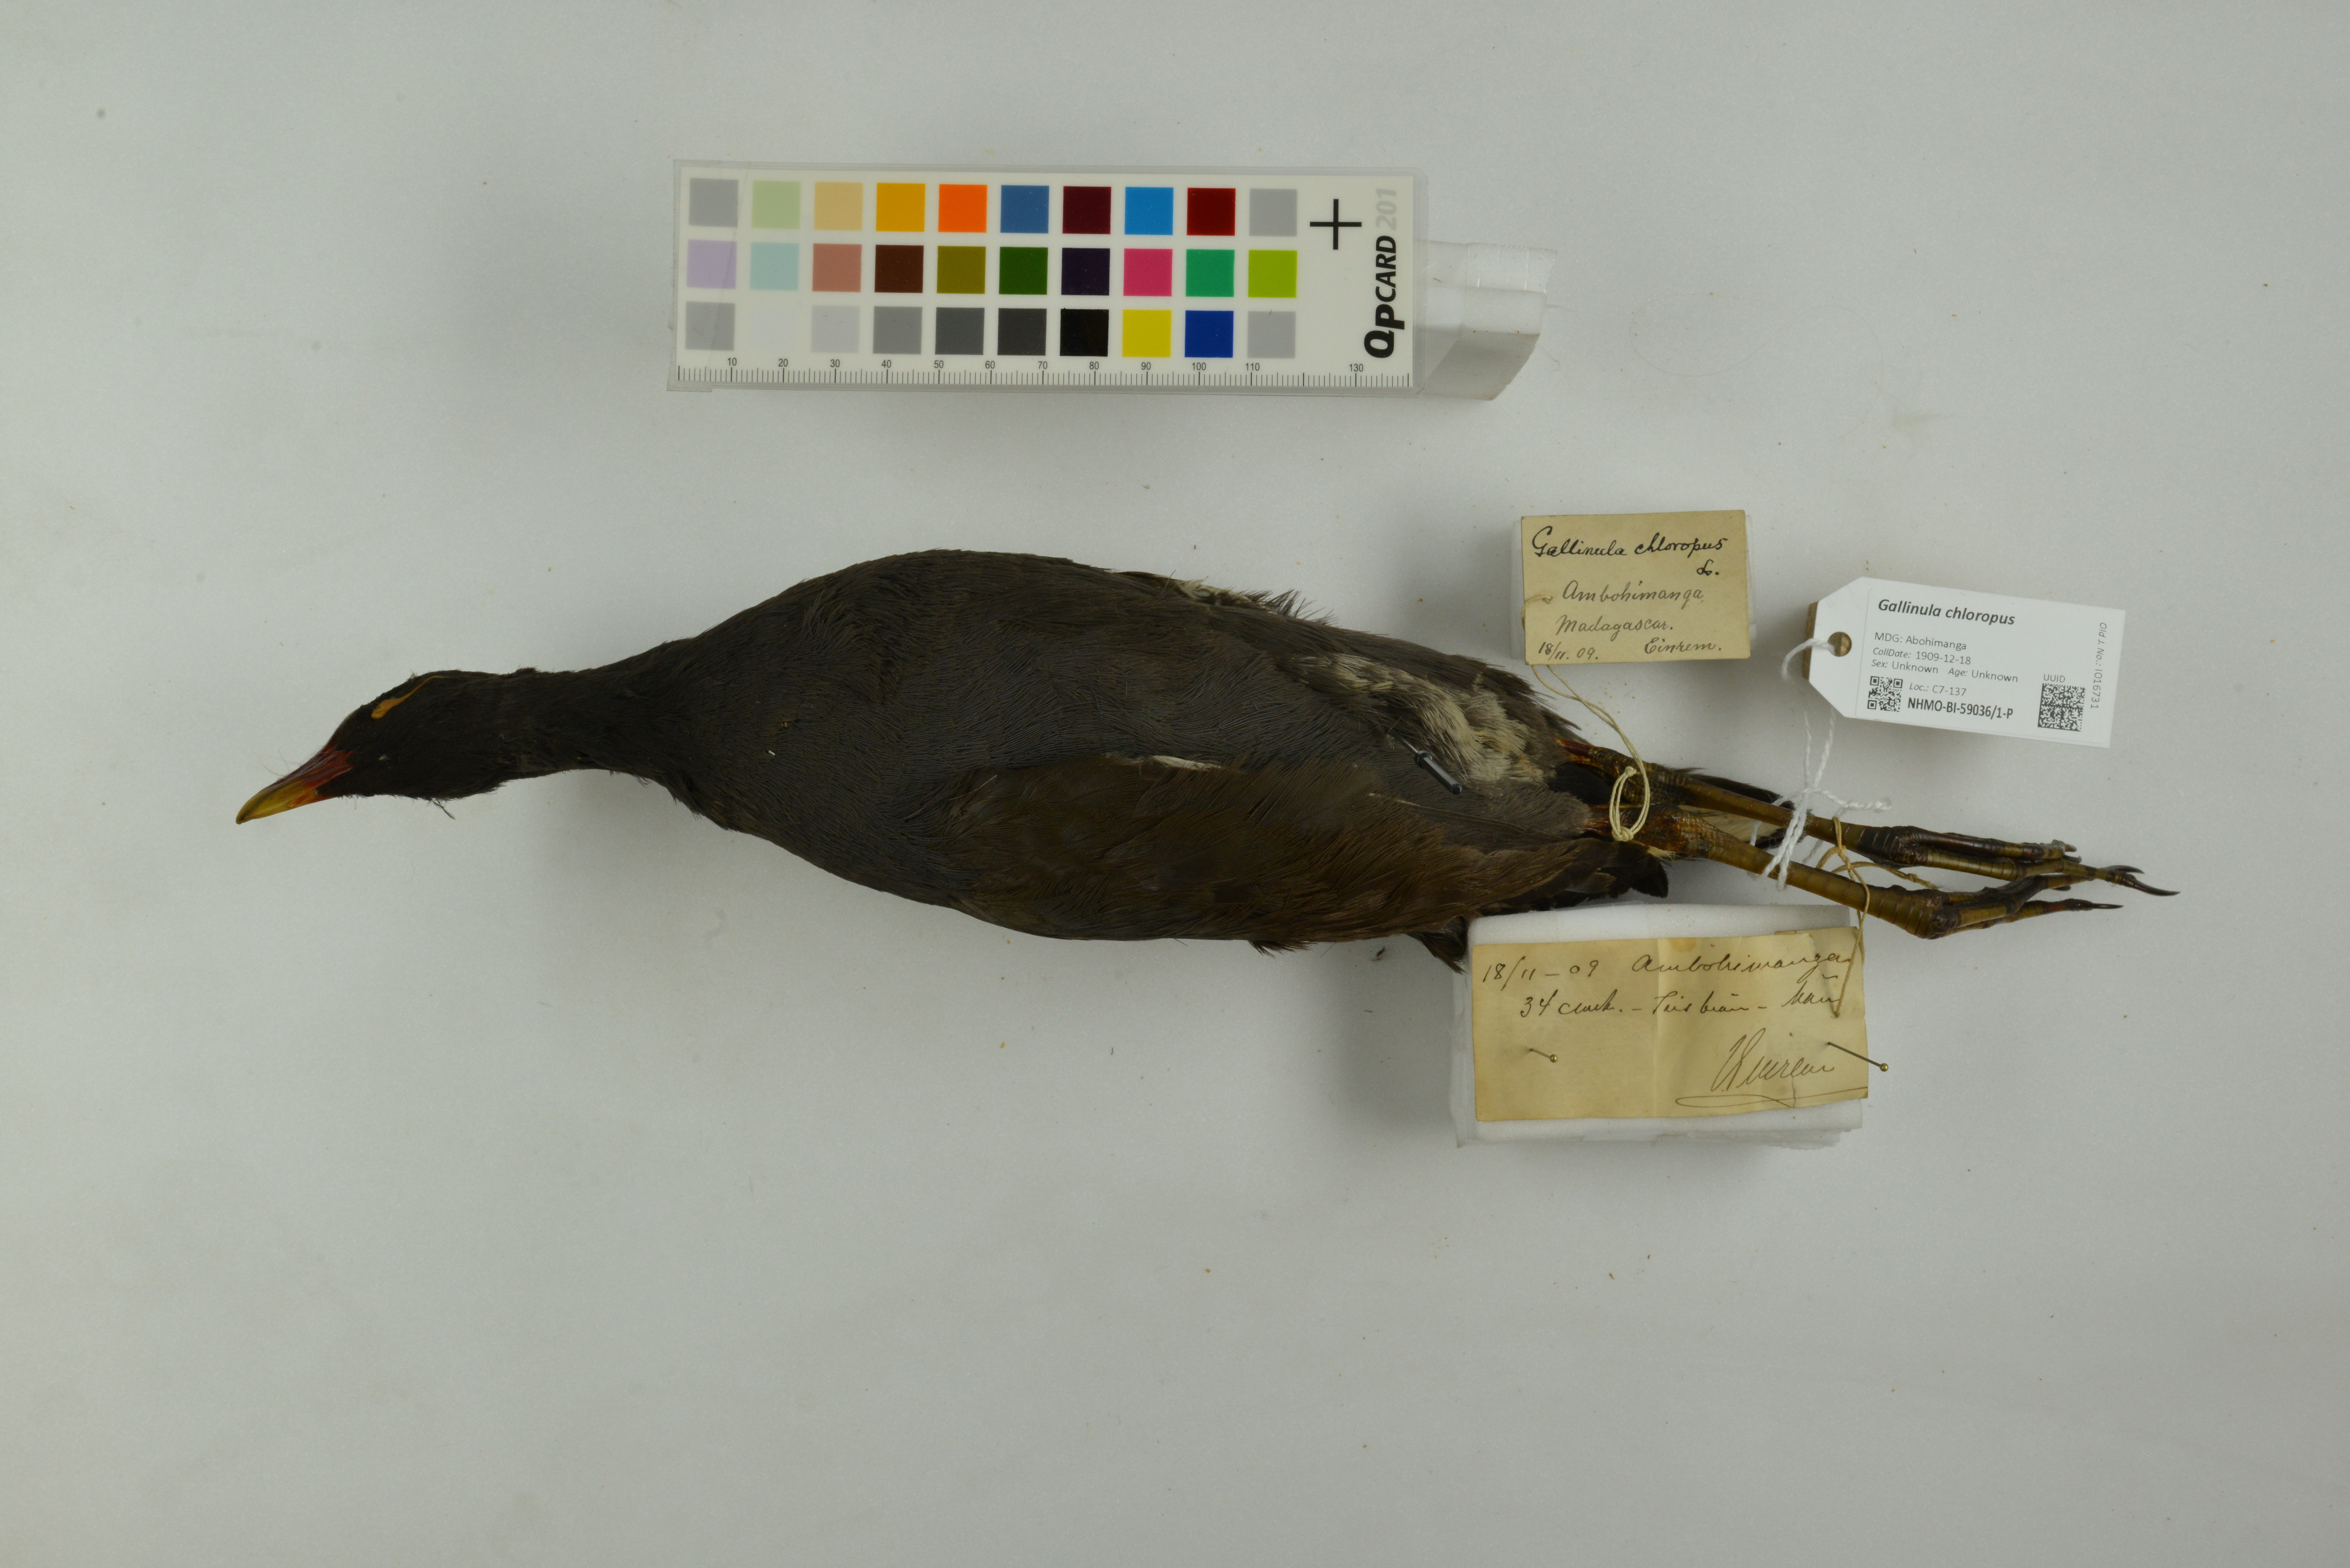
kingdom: Animalia
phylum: Chordata
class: Aves
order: Gruiformes
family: Rallidae
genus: Gallinula
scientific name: Gallinula chloropus
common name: Common moorhen
